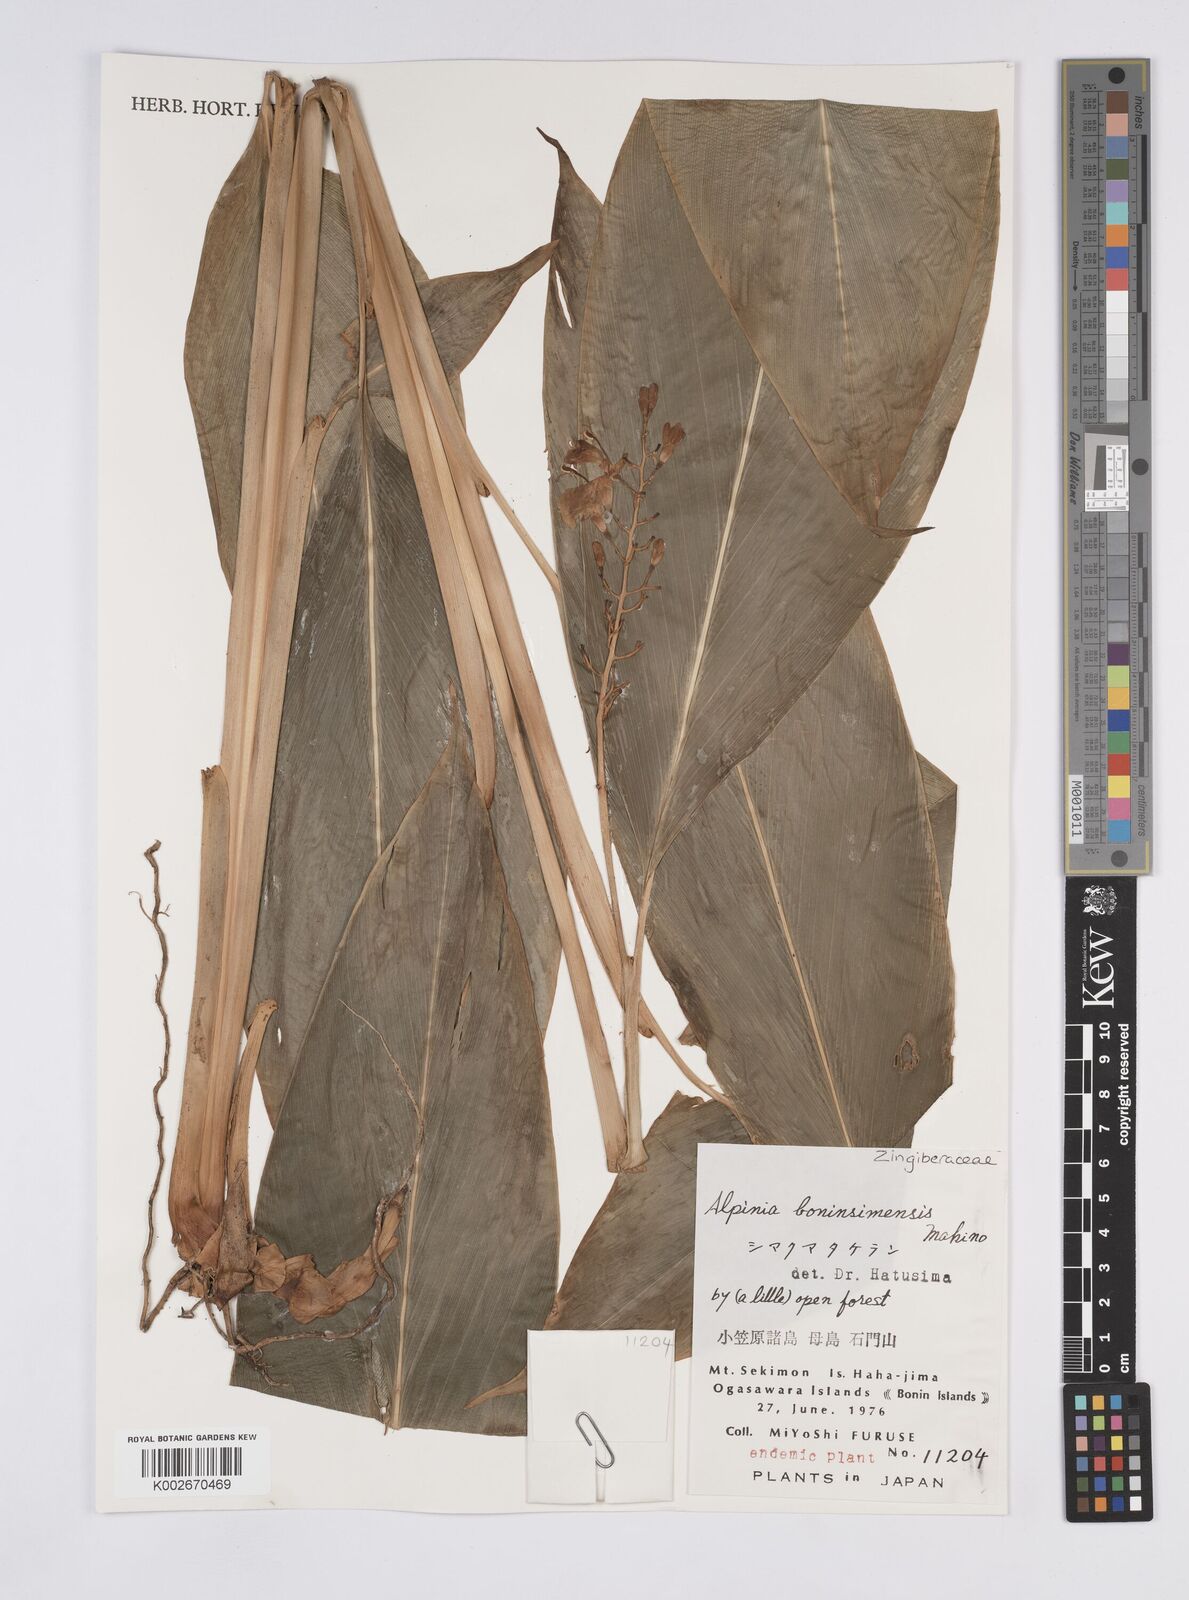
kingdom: Plantae
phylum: Tracheophyta
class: Liliopsida
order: Zingiberales
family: Zingiberaceae
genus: Alpinia
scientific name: Alpinia boninsimensis
